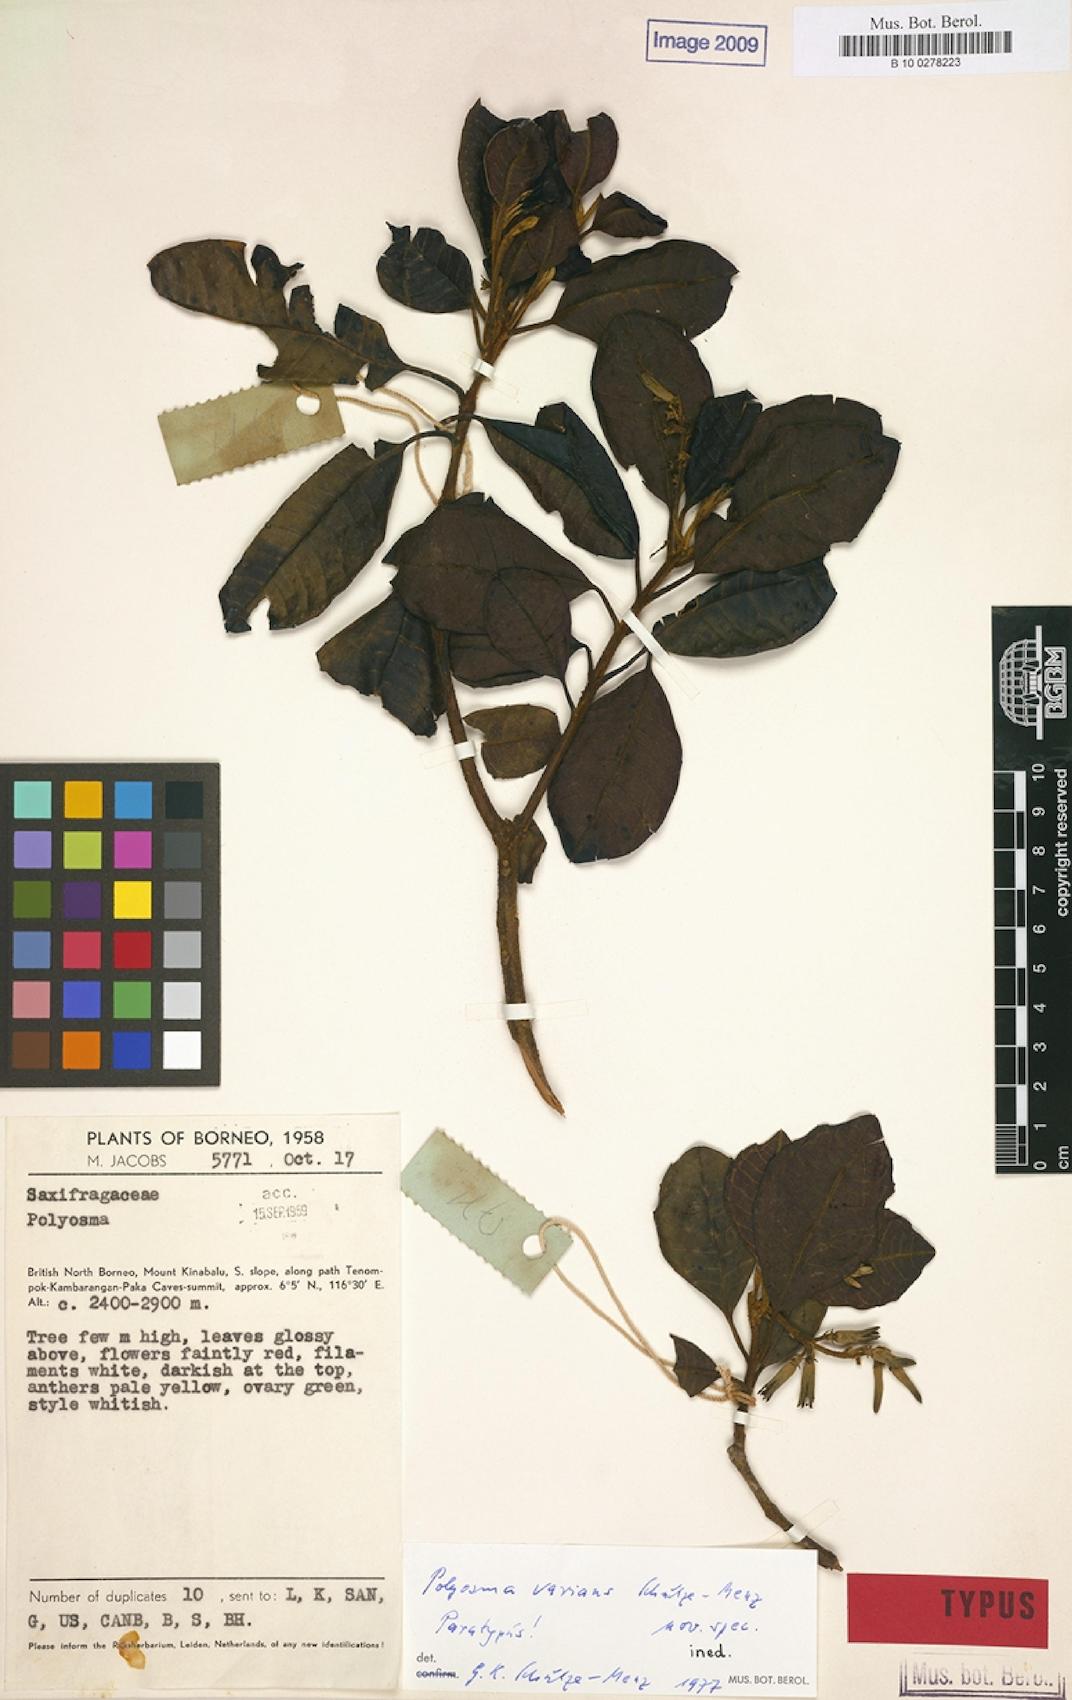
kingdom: Plantae
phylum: Tracheophyta
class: Magnoliopsida
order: Escalloniales
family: Escalloniaceae
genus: Polyosma
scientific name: Polyosma
